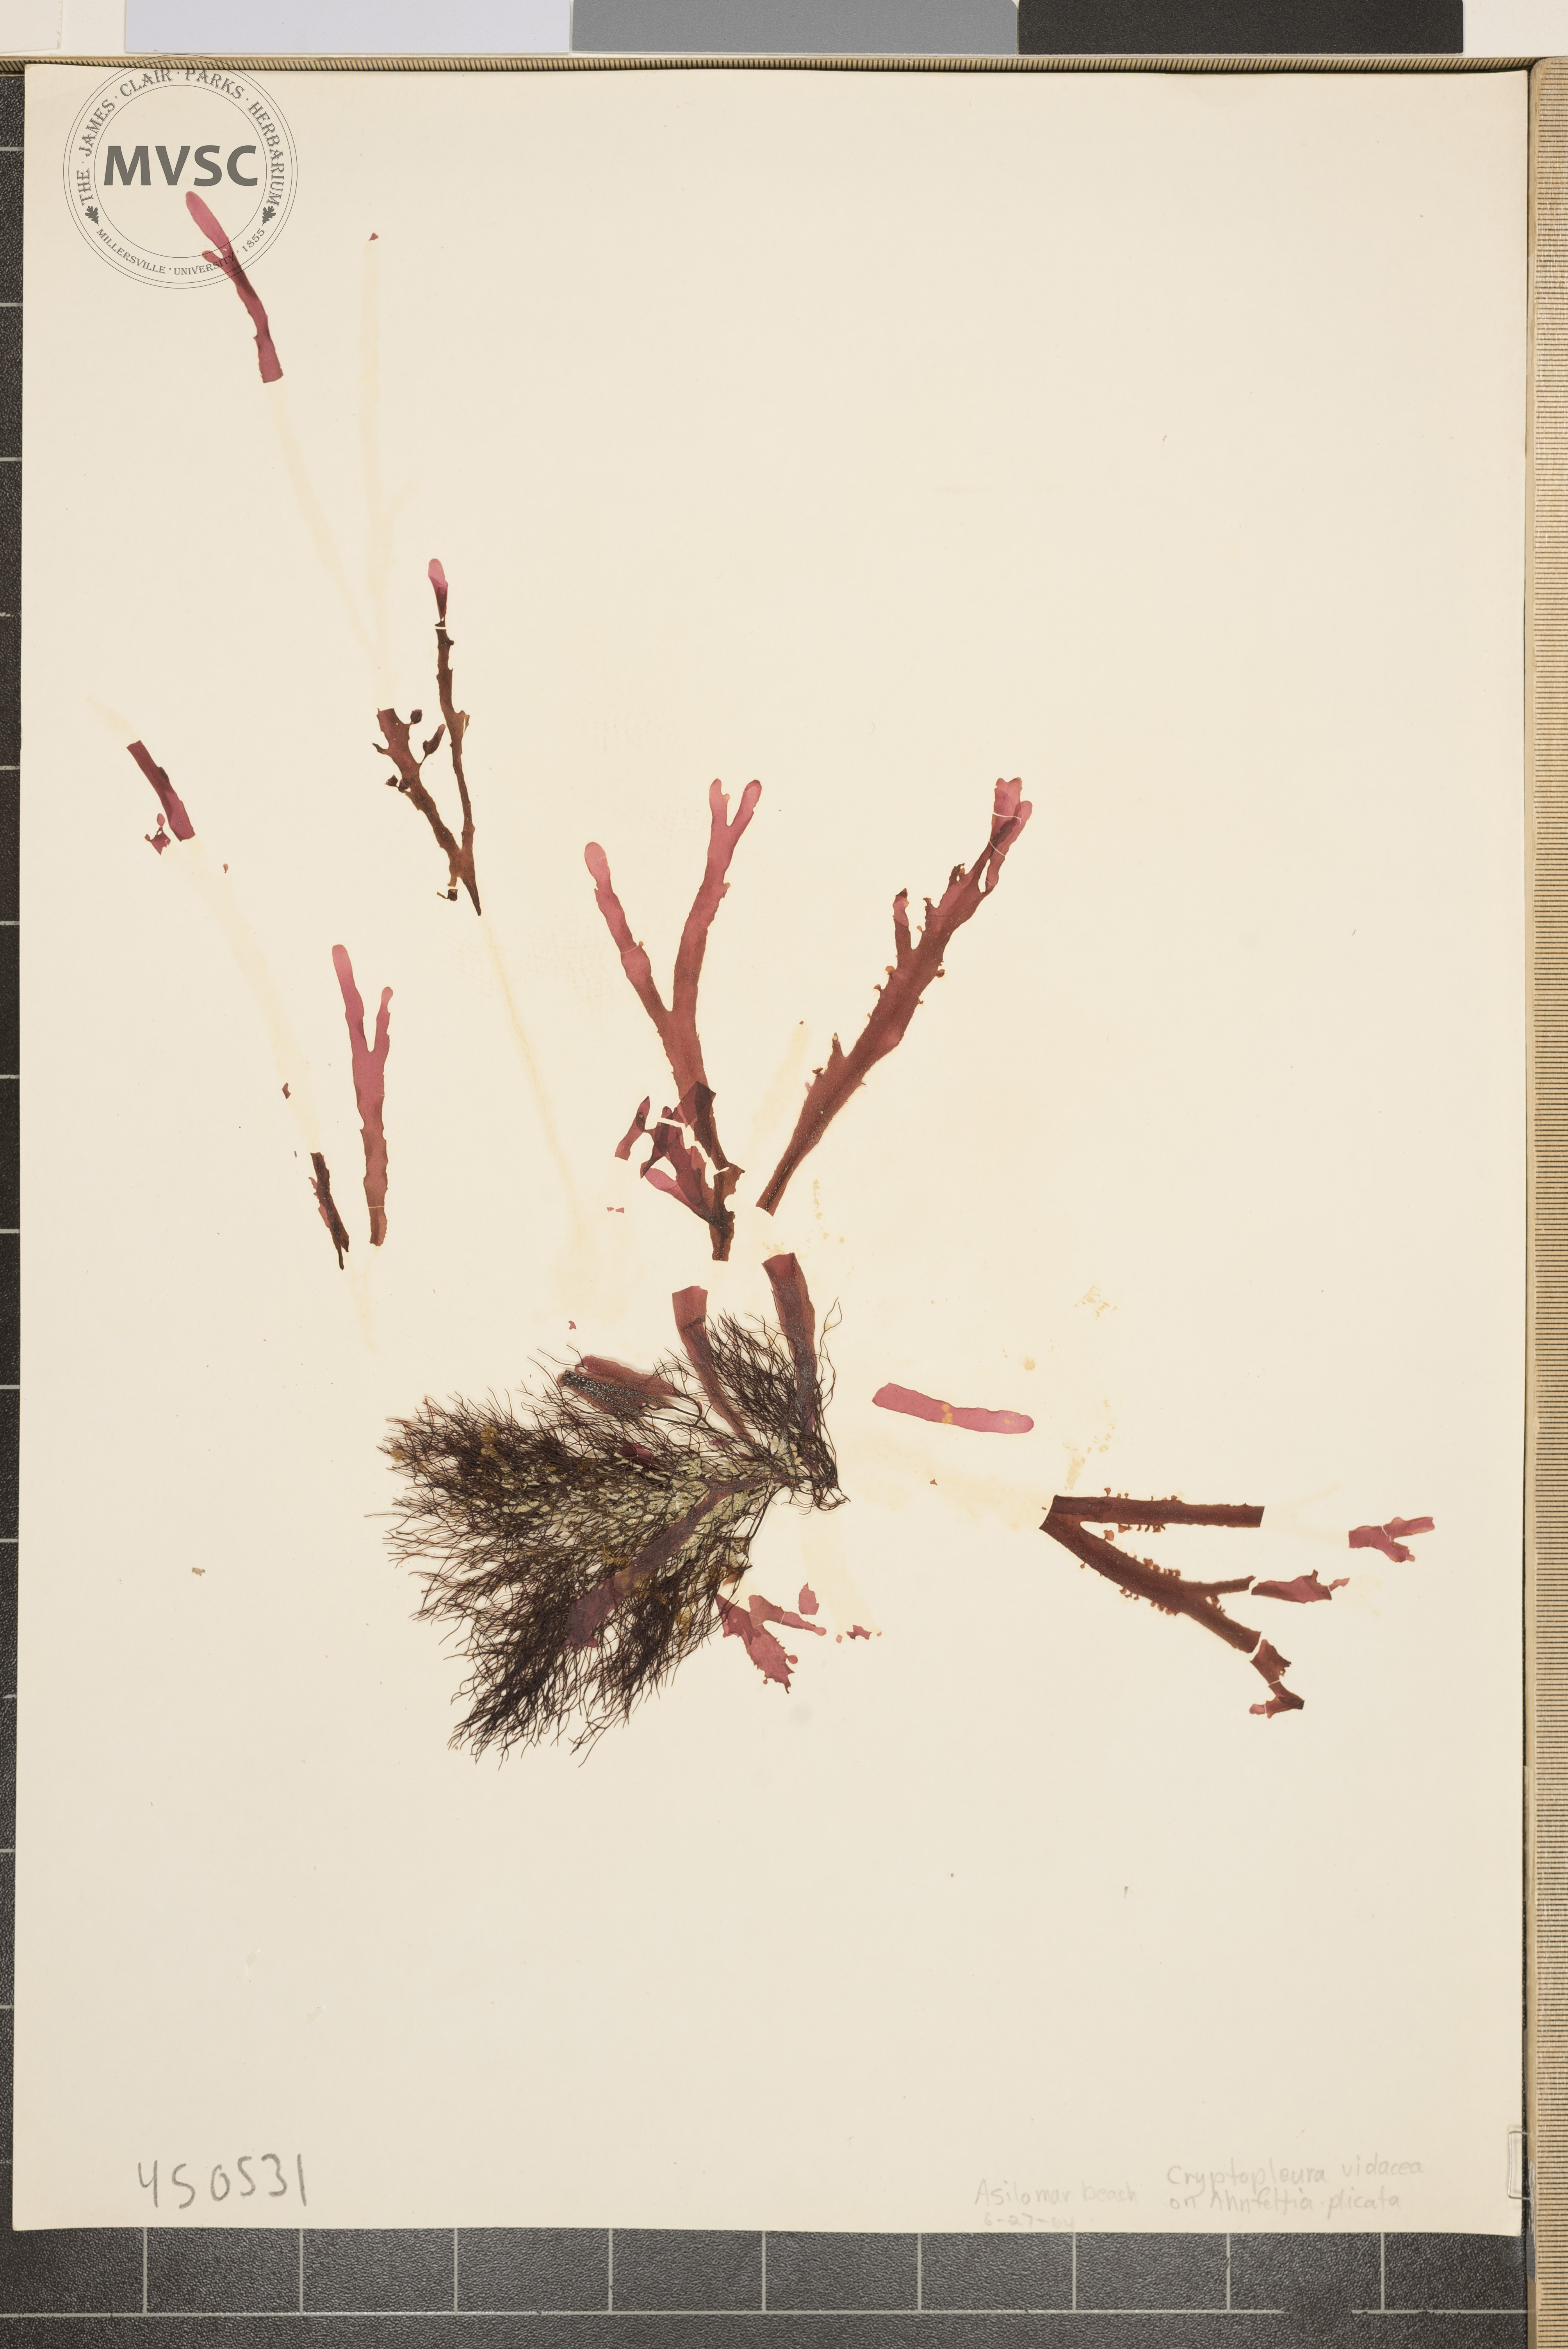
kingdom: Plantae
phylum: Rhodophyta
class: Florideophyceae
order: Ceramiales
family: Delesseriaceae
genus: Cryptopleura
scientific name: Cryptopleura
